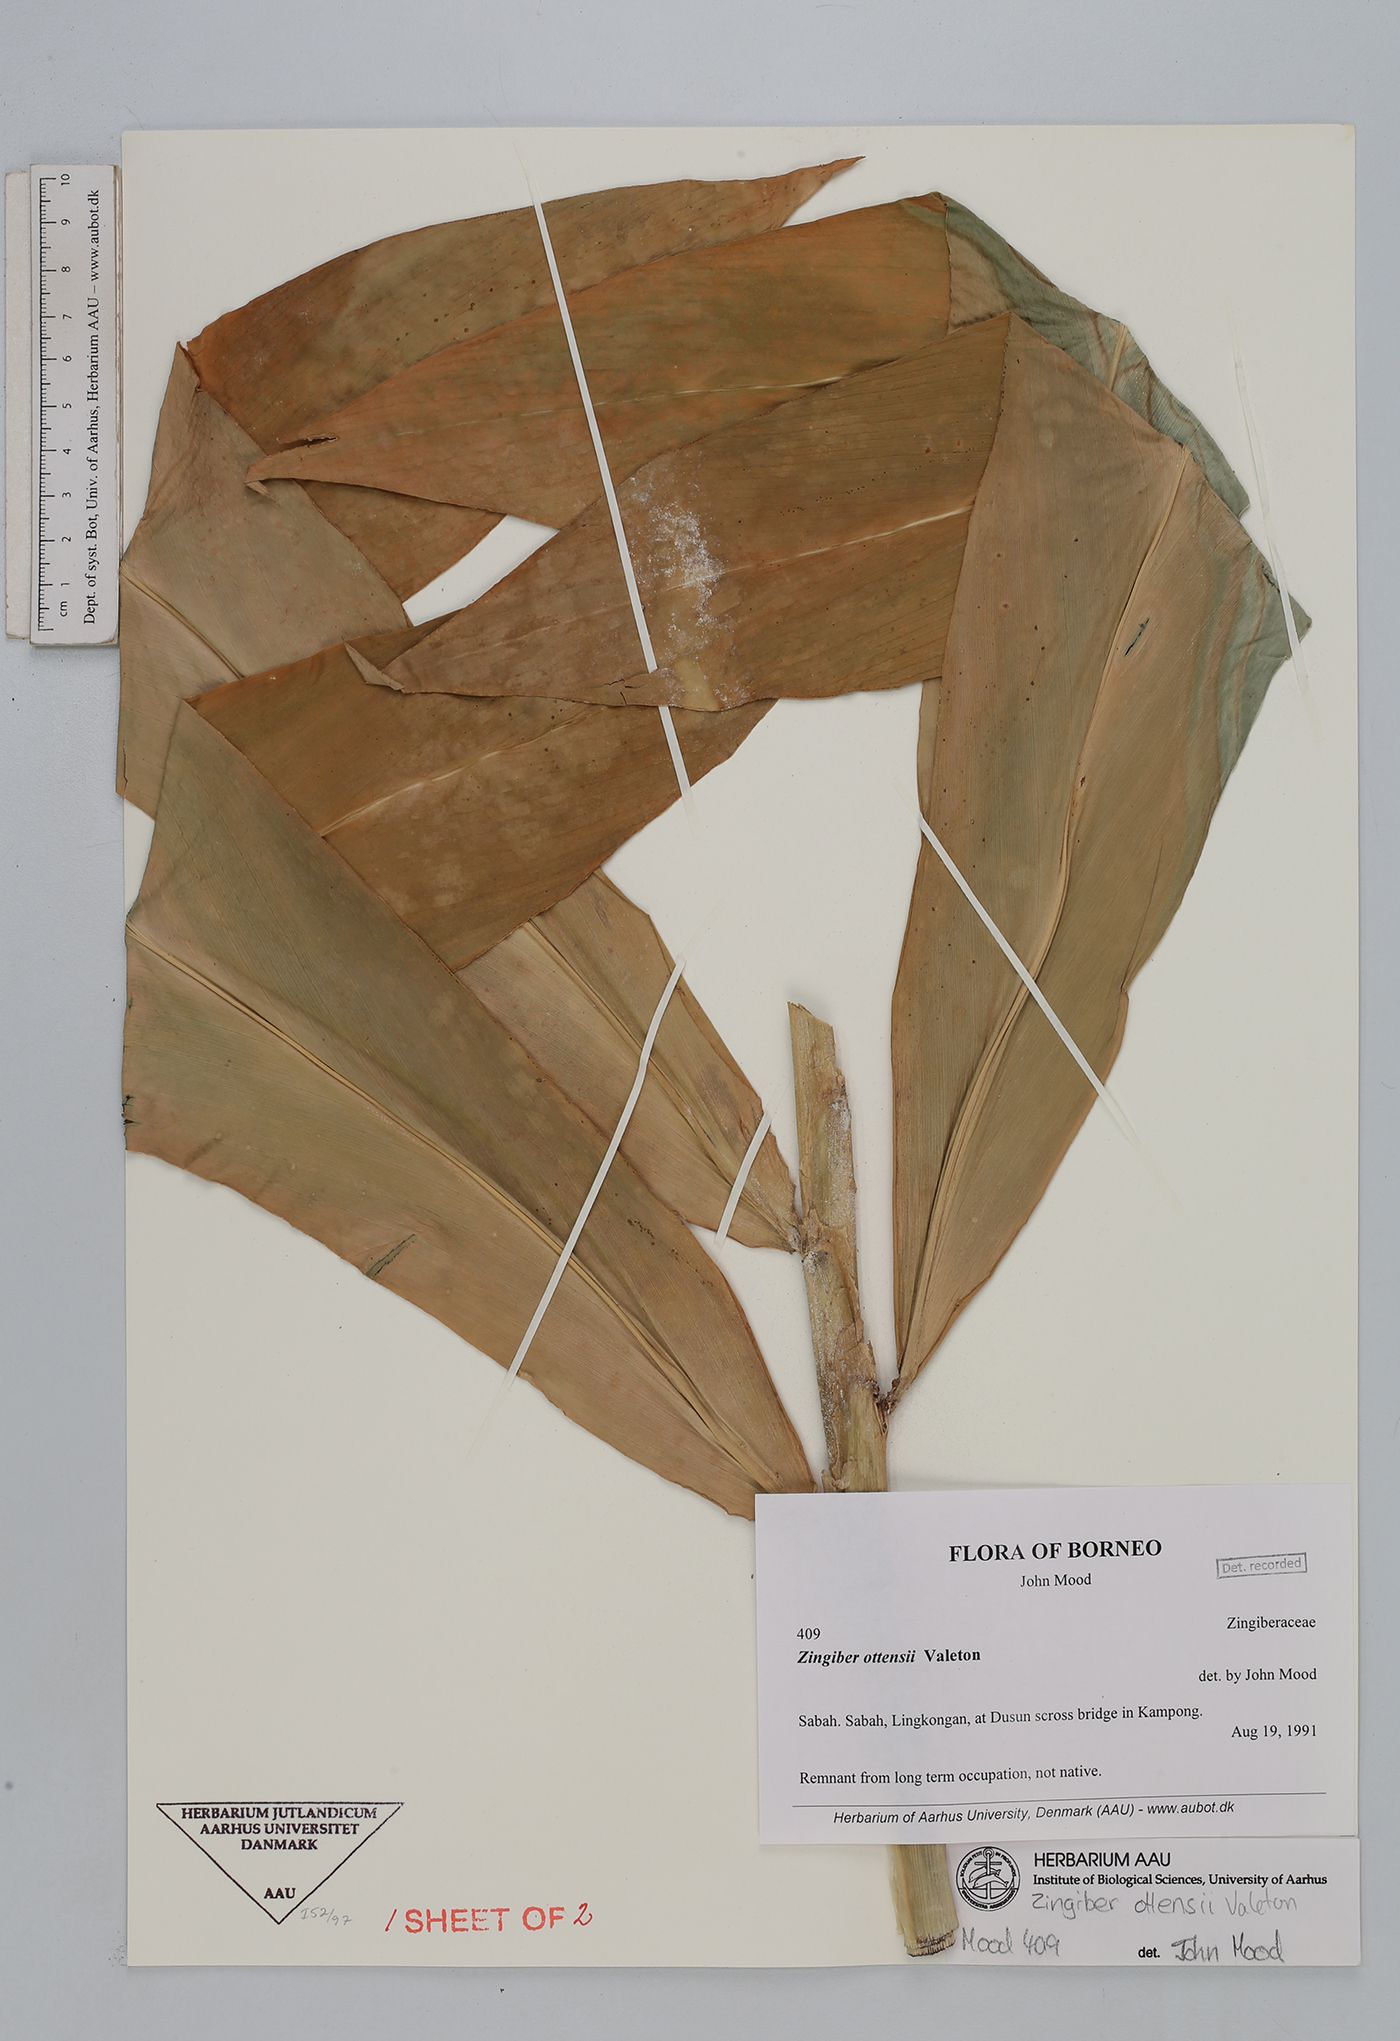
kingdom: Plantae
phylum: Tracheophyta
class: Liliopsida
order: Zingiberales
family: Zingiberaceae
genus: Zingiber
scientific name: Zingiber ottensii
